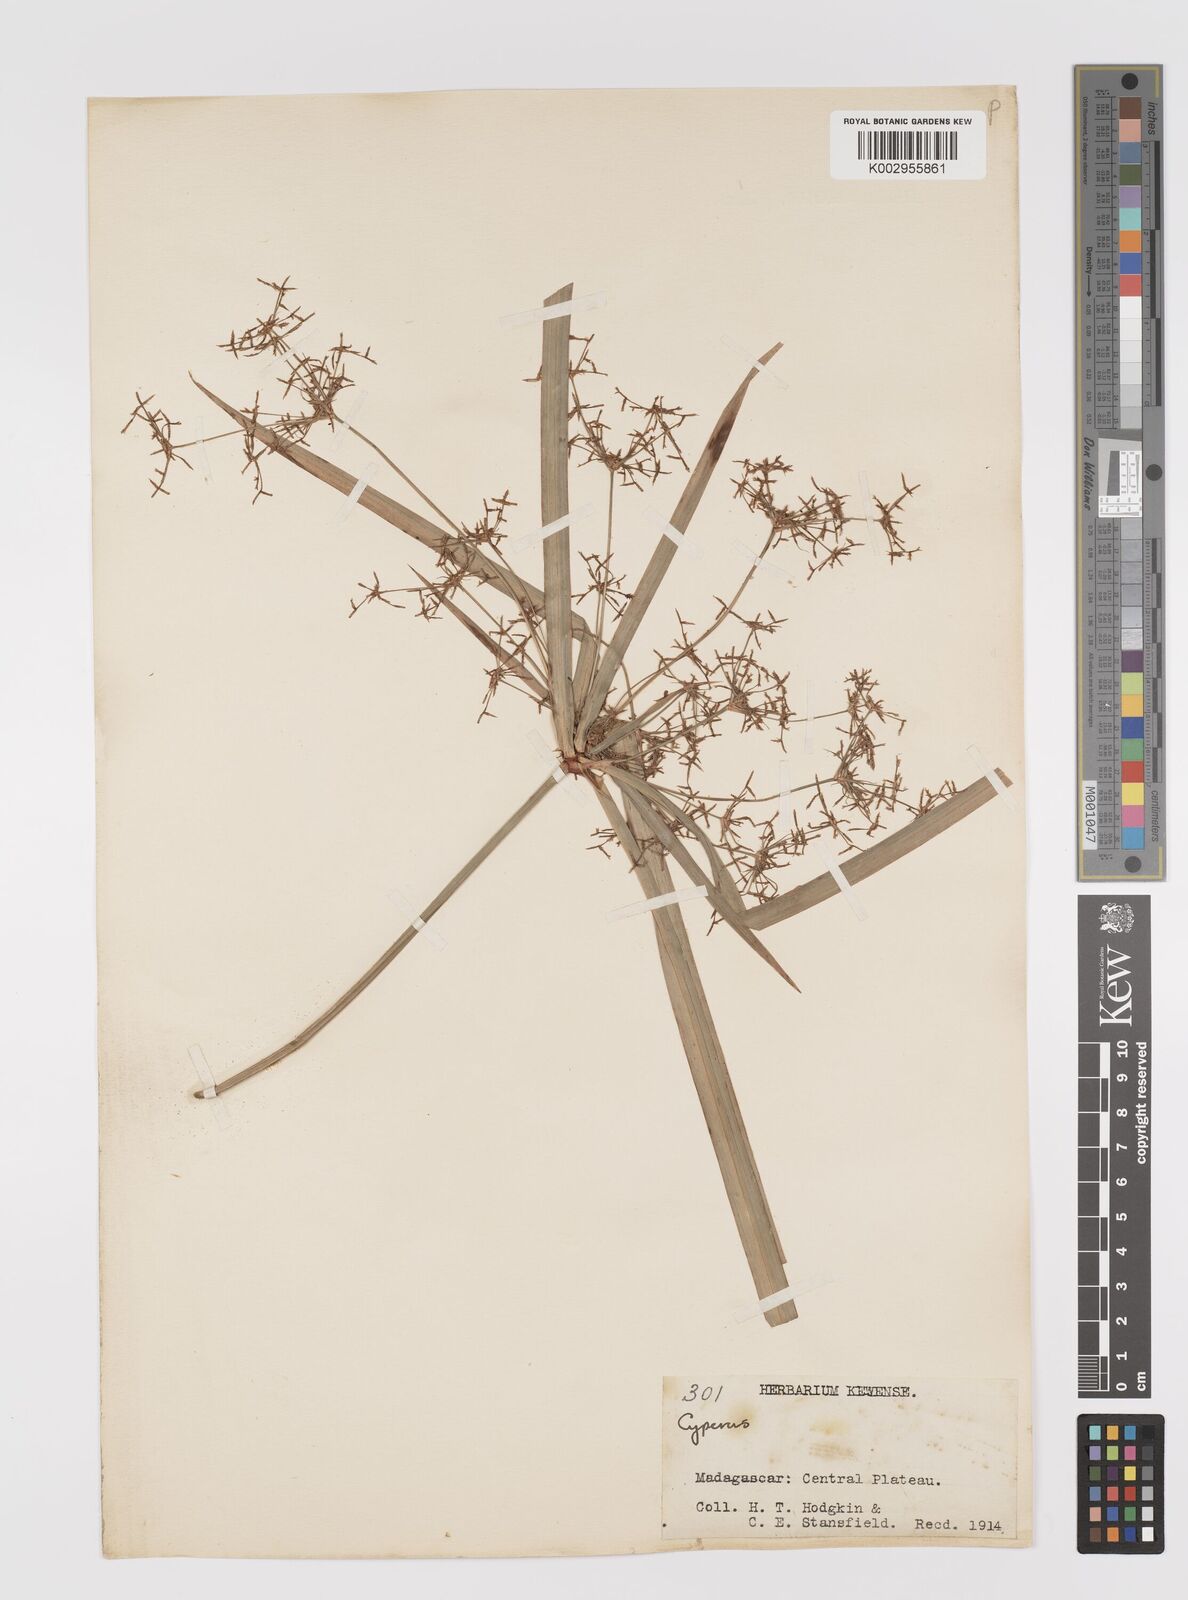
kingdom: Plantae
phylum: Tracheophyta
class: Liliopsida
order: Poales
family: Cyperaceae
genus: Cyperus
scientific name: Cyperus
